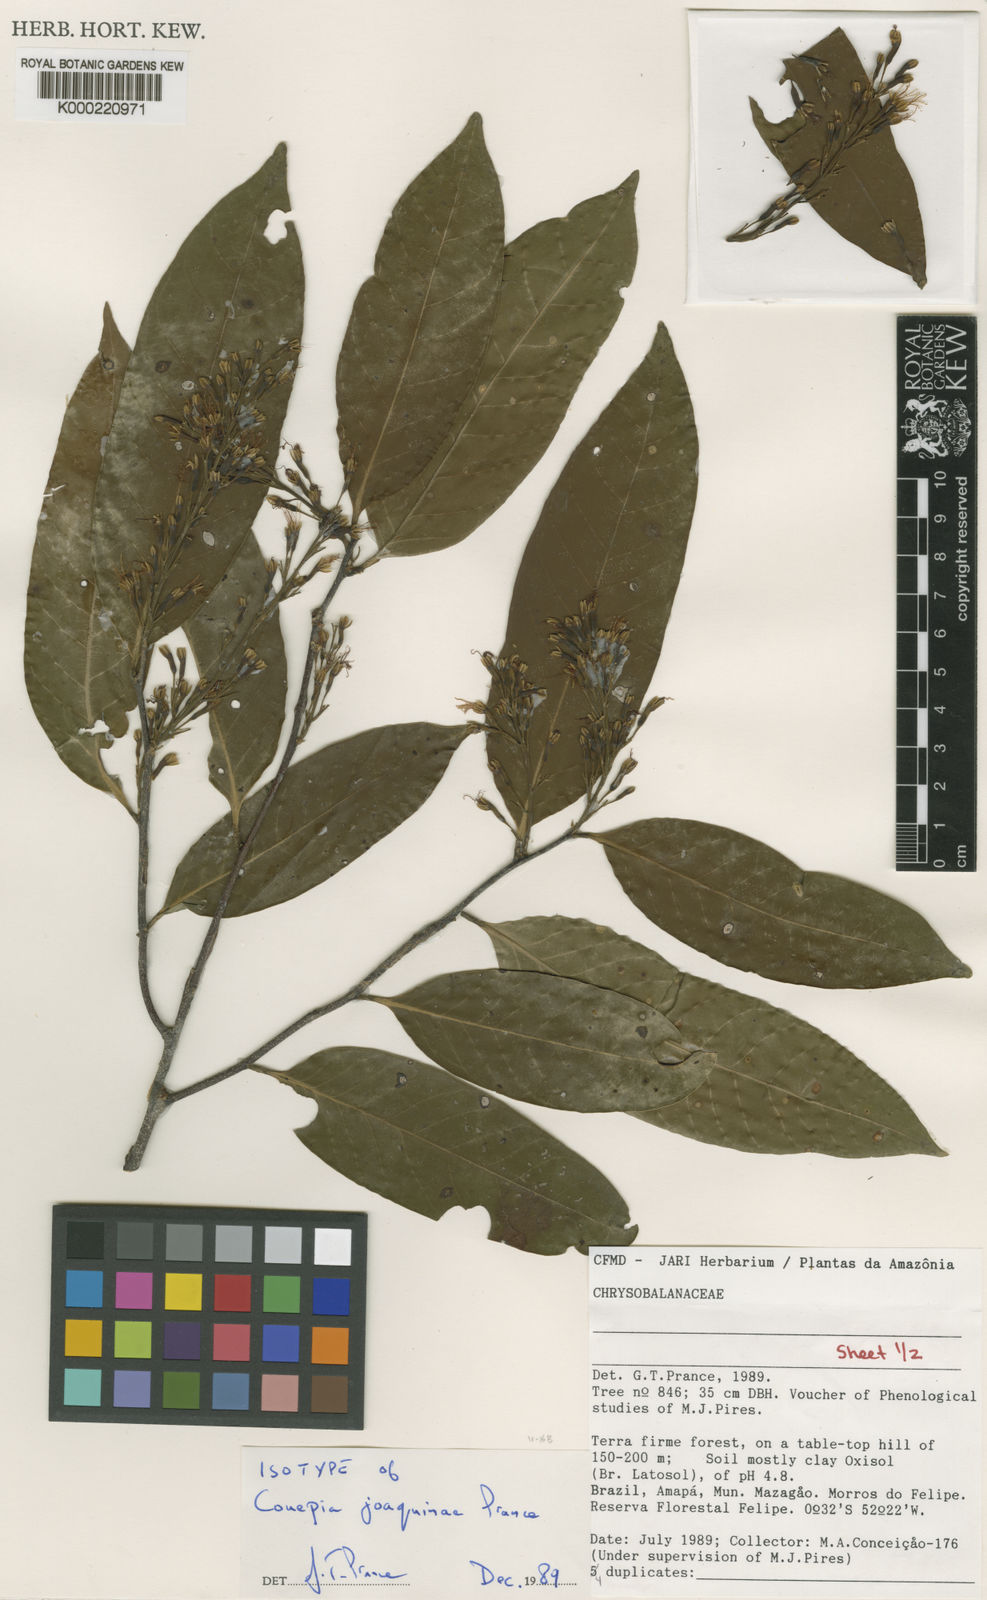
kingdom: Plantae
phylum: Tracheophyta
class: Magnoliopsida
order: Malpighiales
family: Chrysobalanaceae
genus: Couepia
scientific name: Couepia joaquinae
